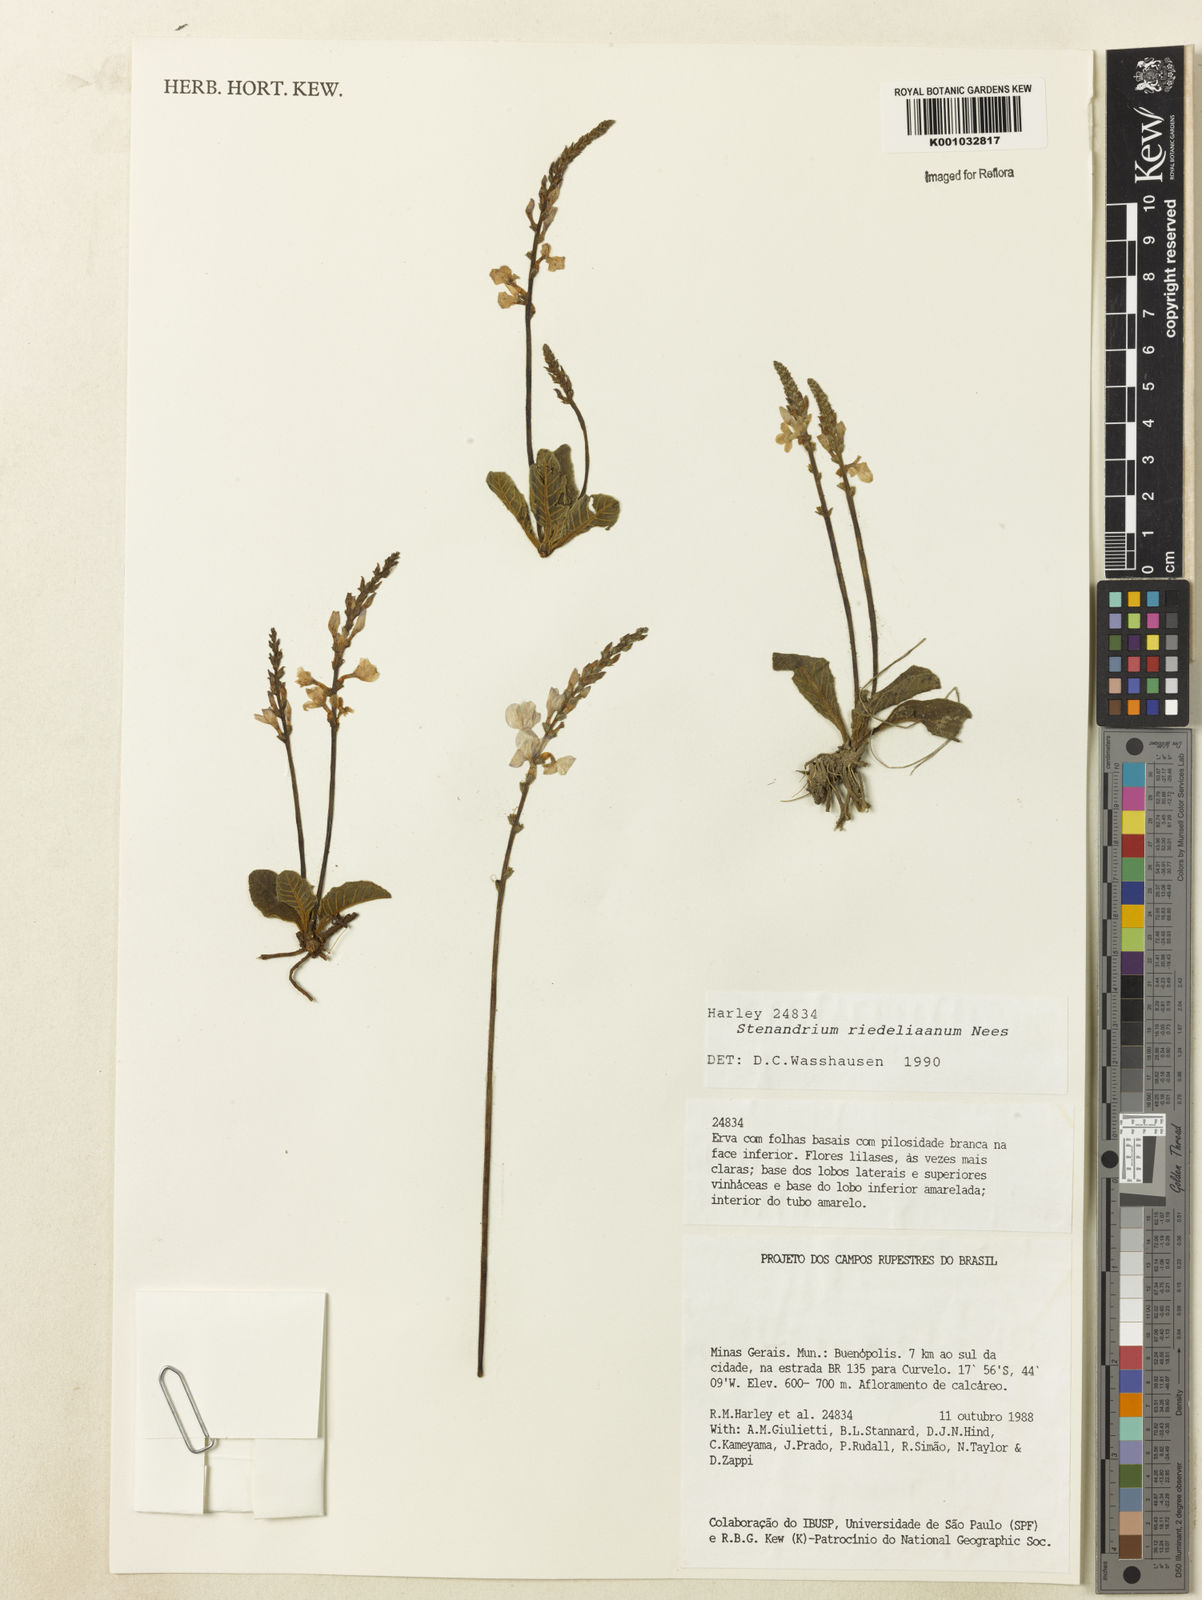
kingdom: Plantae
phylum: Tracheophyta
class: Magnoliopsida
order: Lamiales
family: Acanthaceae
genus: Stenandrium
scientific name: Stenandrium riedelianum
